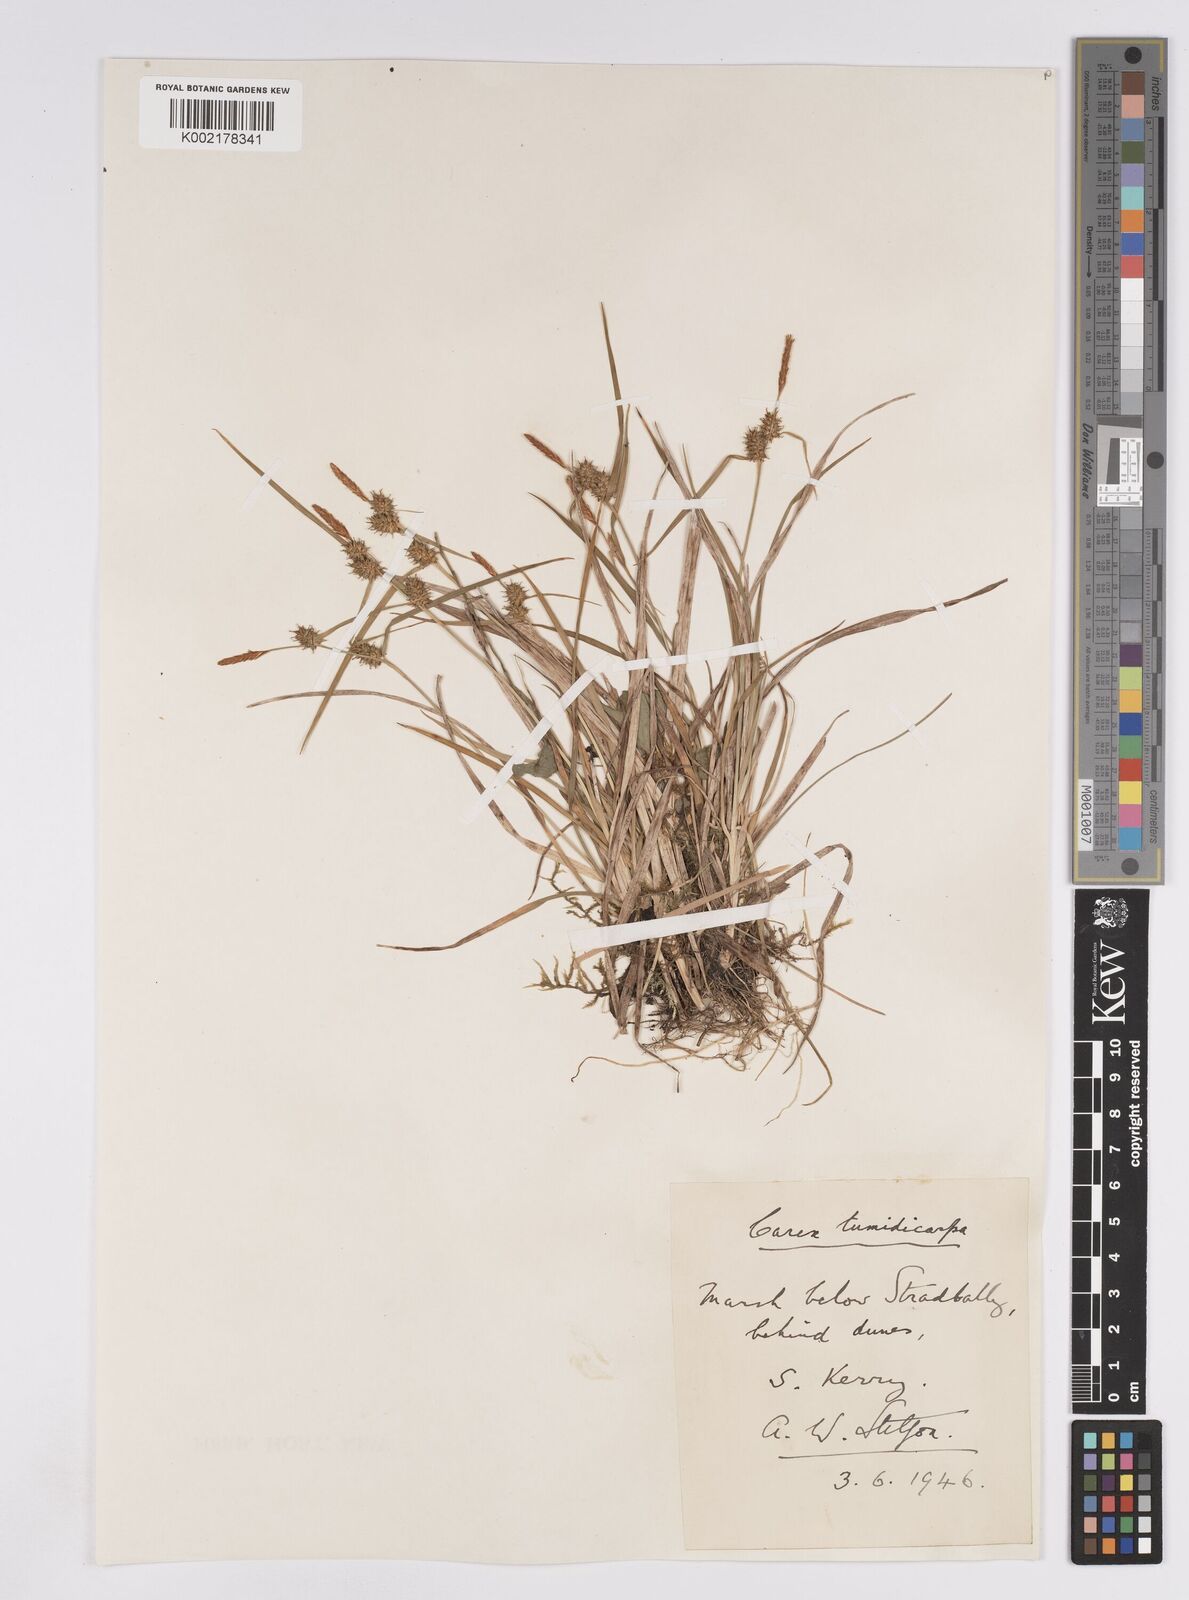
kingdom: Plantae
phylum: Tracheophyta
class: Liliopsida
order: Poales
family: Cyperaceae
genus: Carex
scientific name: Carex demissa
